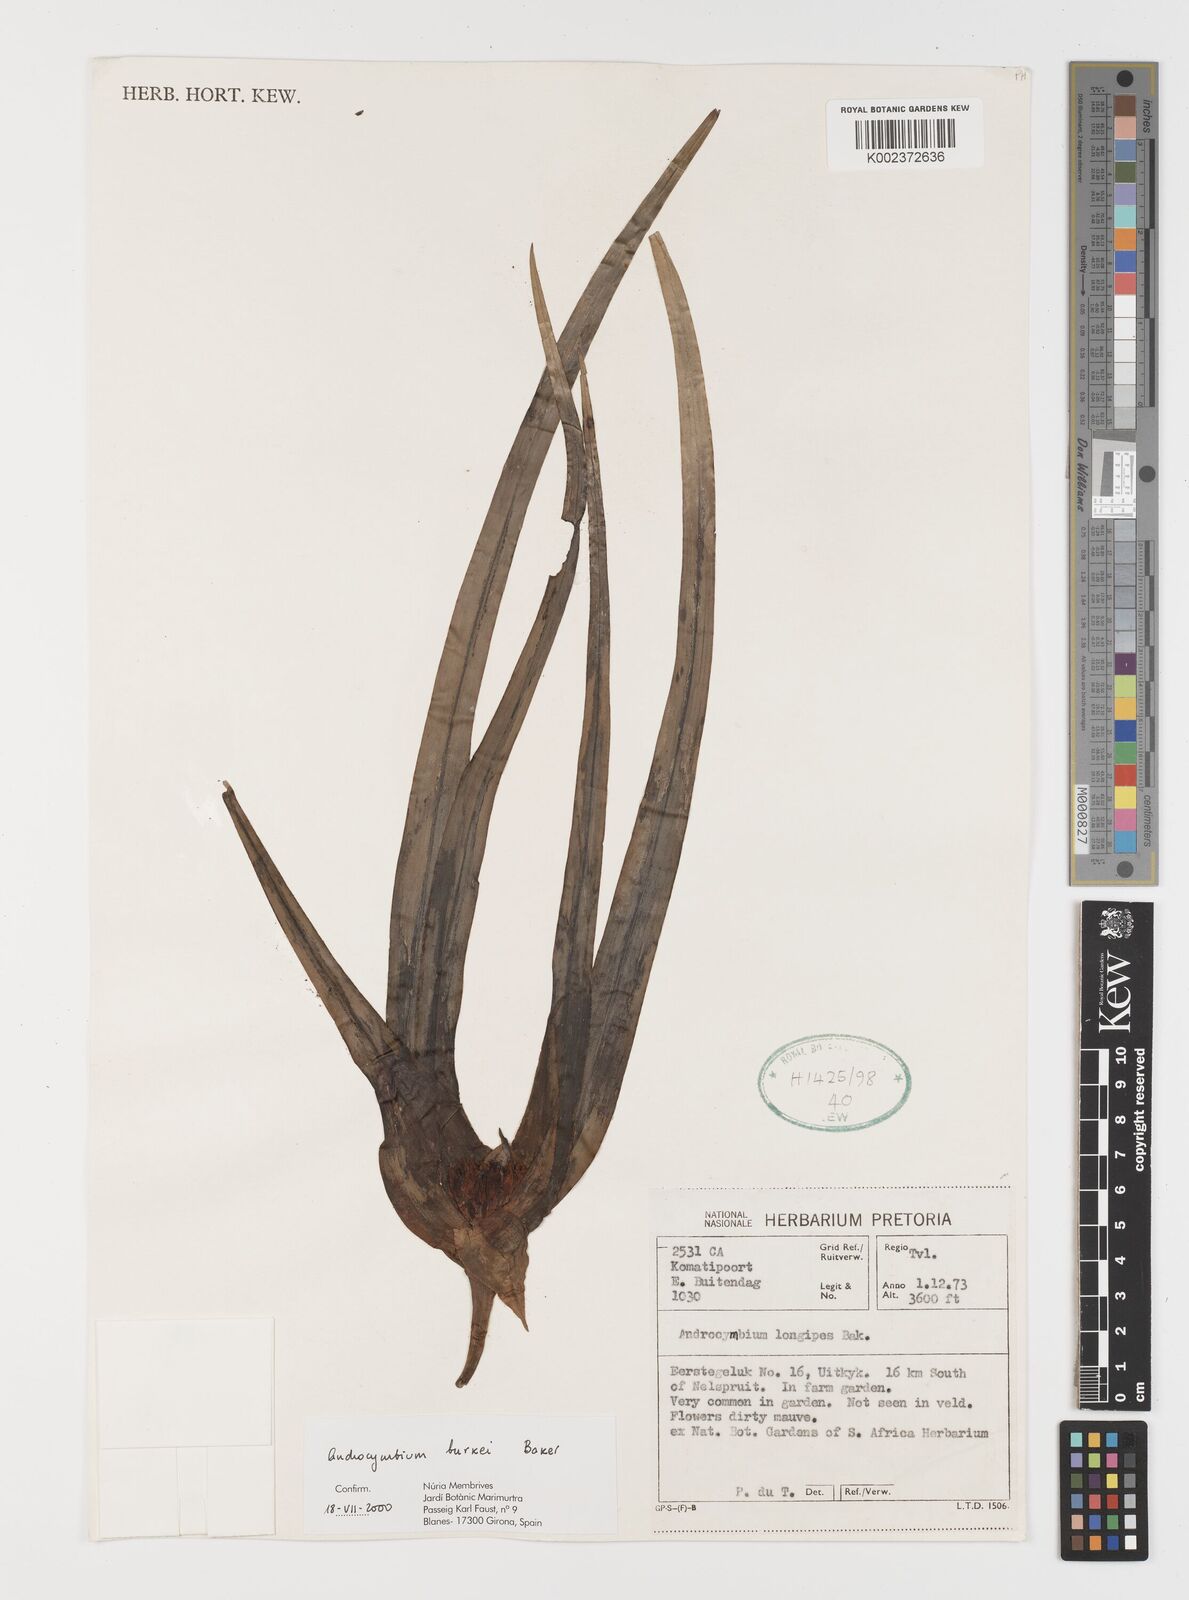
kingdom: Plantae
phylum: Tracheophyta
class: Liliopsida
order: Liliales
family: Colchicaceae
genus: Colchicum
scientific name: Colchicum burkei
